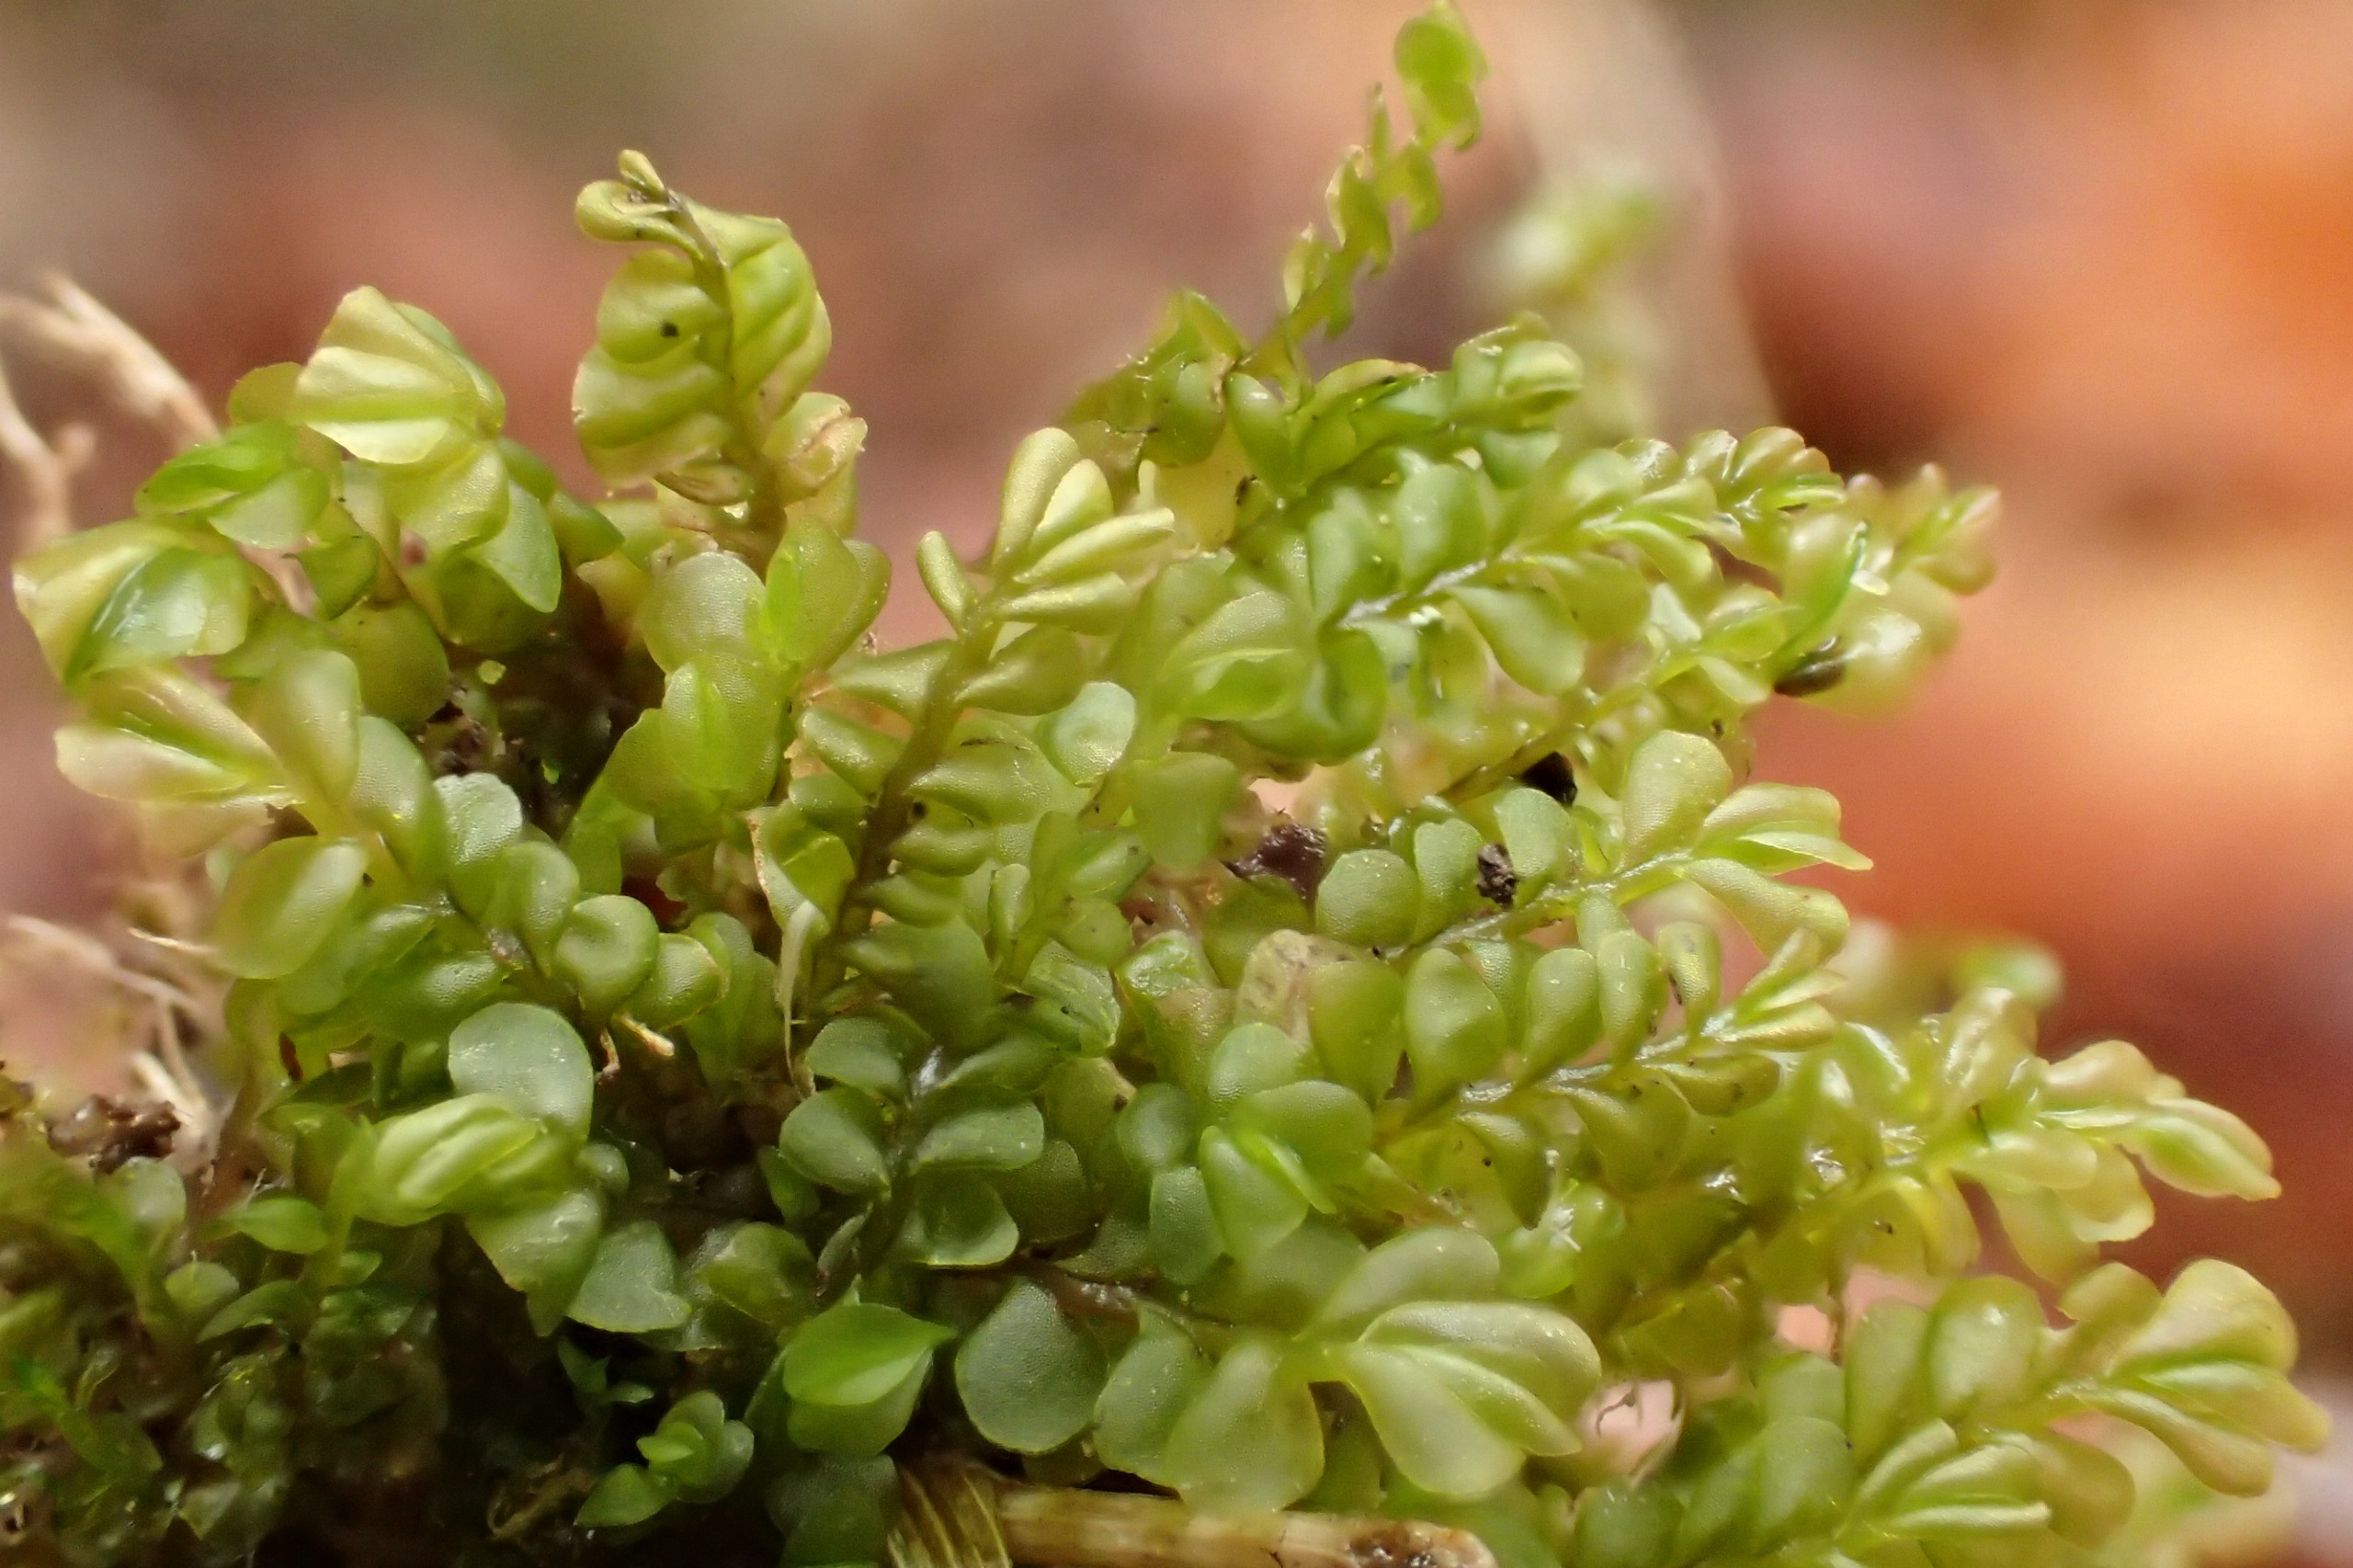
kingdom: Plantae
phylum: Marchantiophyta
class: Jungermanniopsida
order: Jungermanniales
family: Plagiochilaceae
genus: Plagiochila
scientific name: Plagiochila asplenioides
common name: Radeløv-hindeblad
